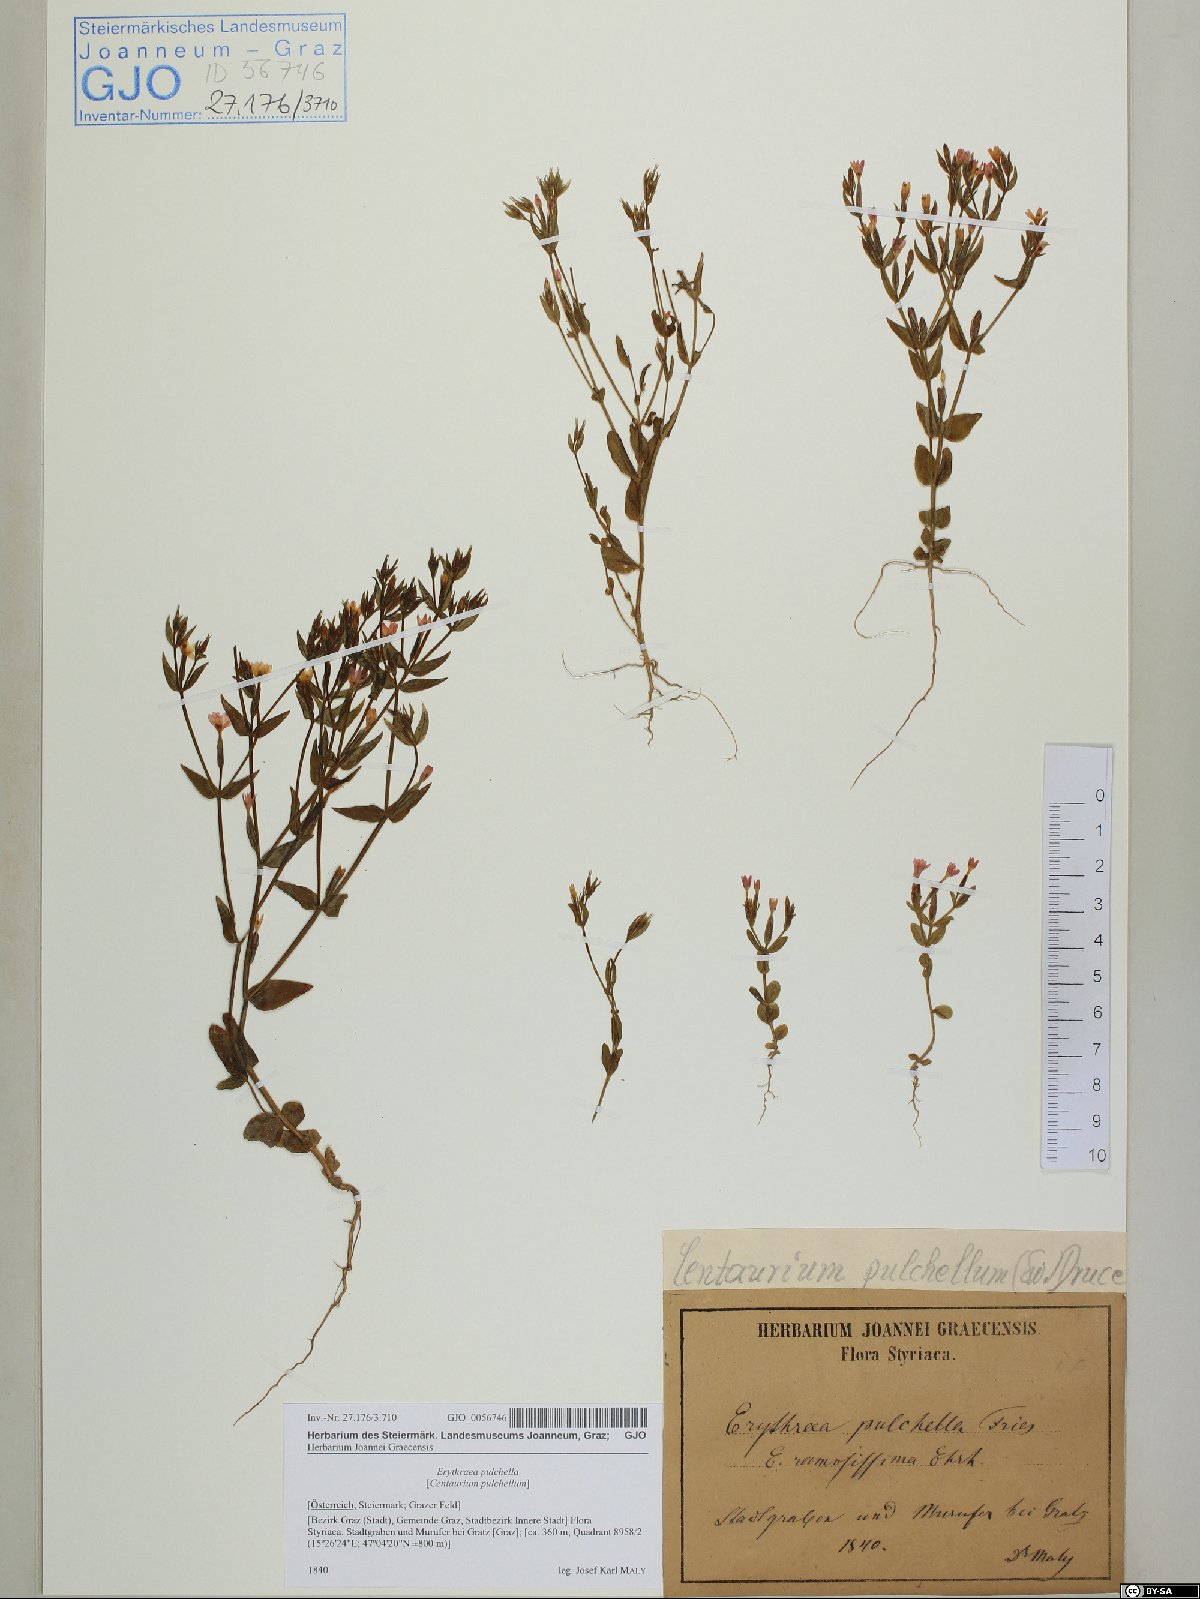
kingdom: Plantae
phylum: Tracheophyta
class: Magnoliopsida
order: Gentianales
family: Gentianaceae
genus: Centaurium
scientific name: Centaurium pulchellum
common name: Lesser centaury
